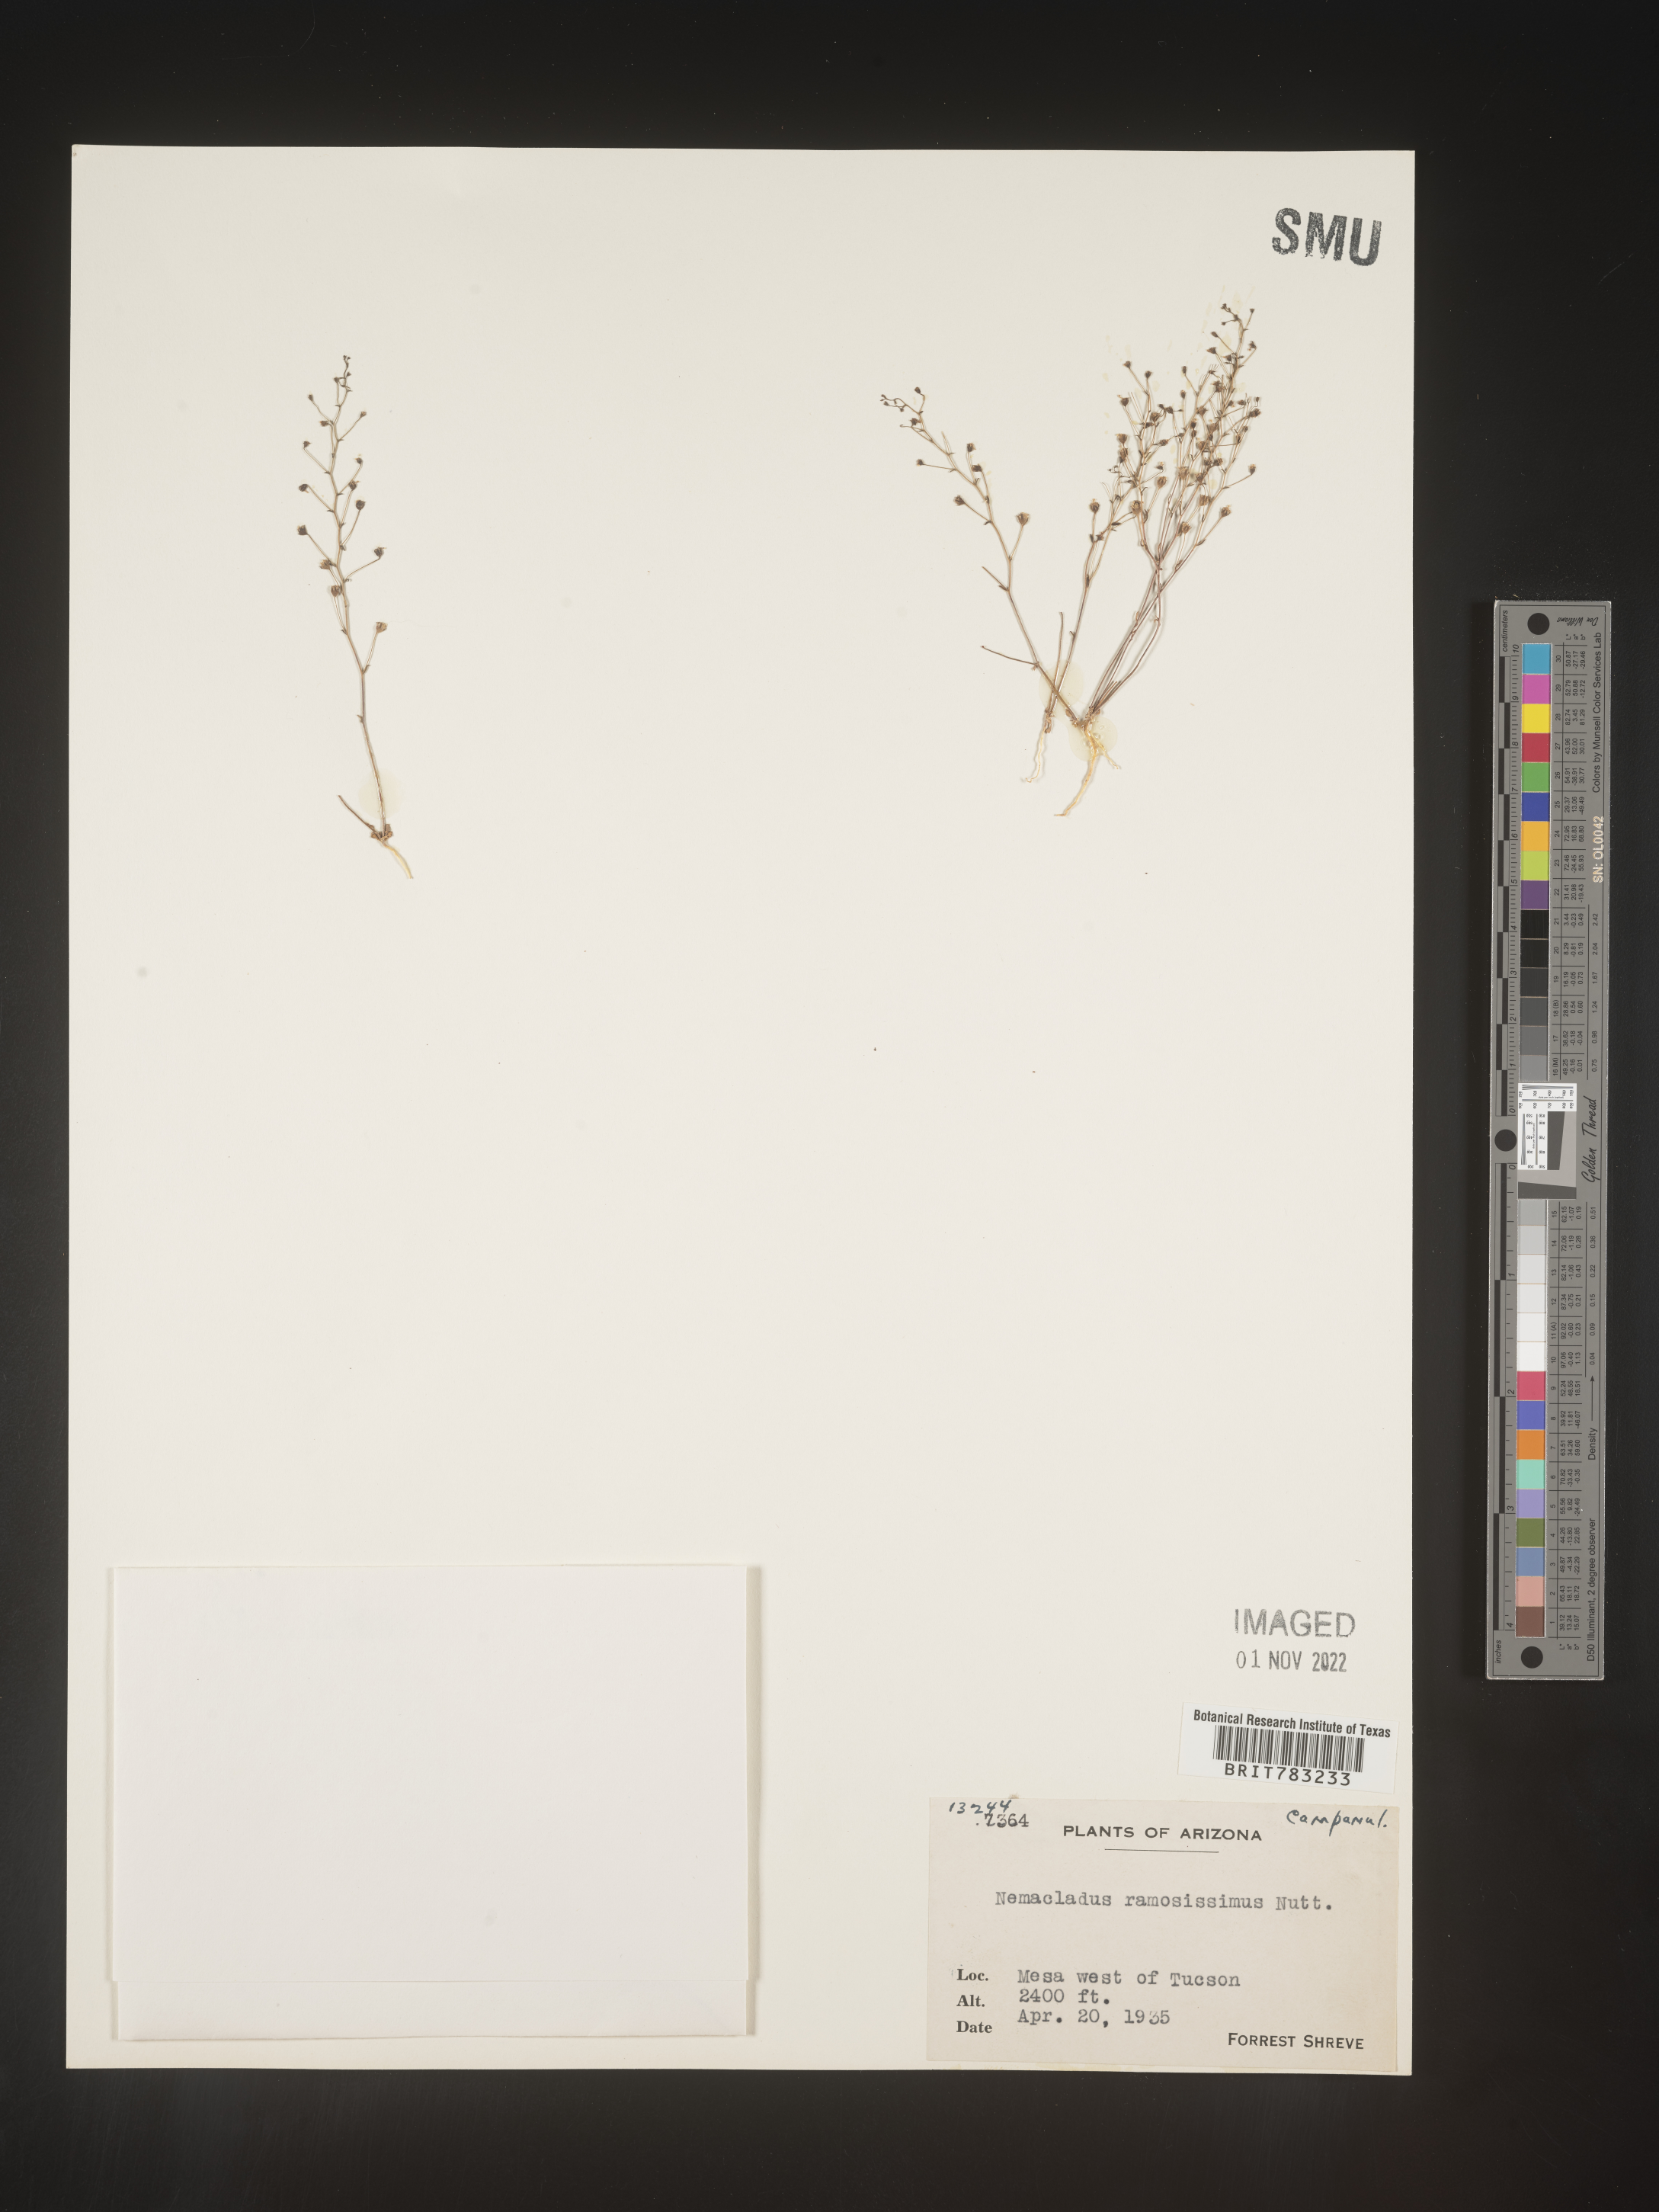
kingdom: Plantae
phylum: Tracheophyta
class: Magnoliopsida
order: Asterales
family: Campanulaceae
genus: Nemacladus
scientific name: Nemacladus
